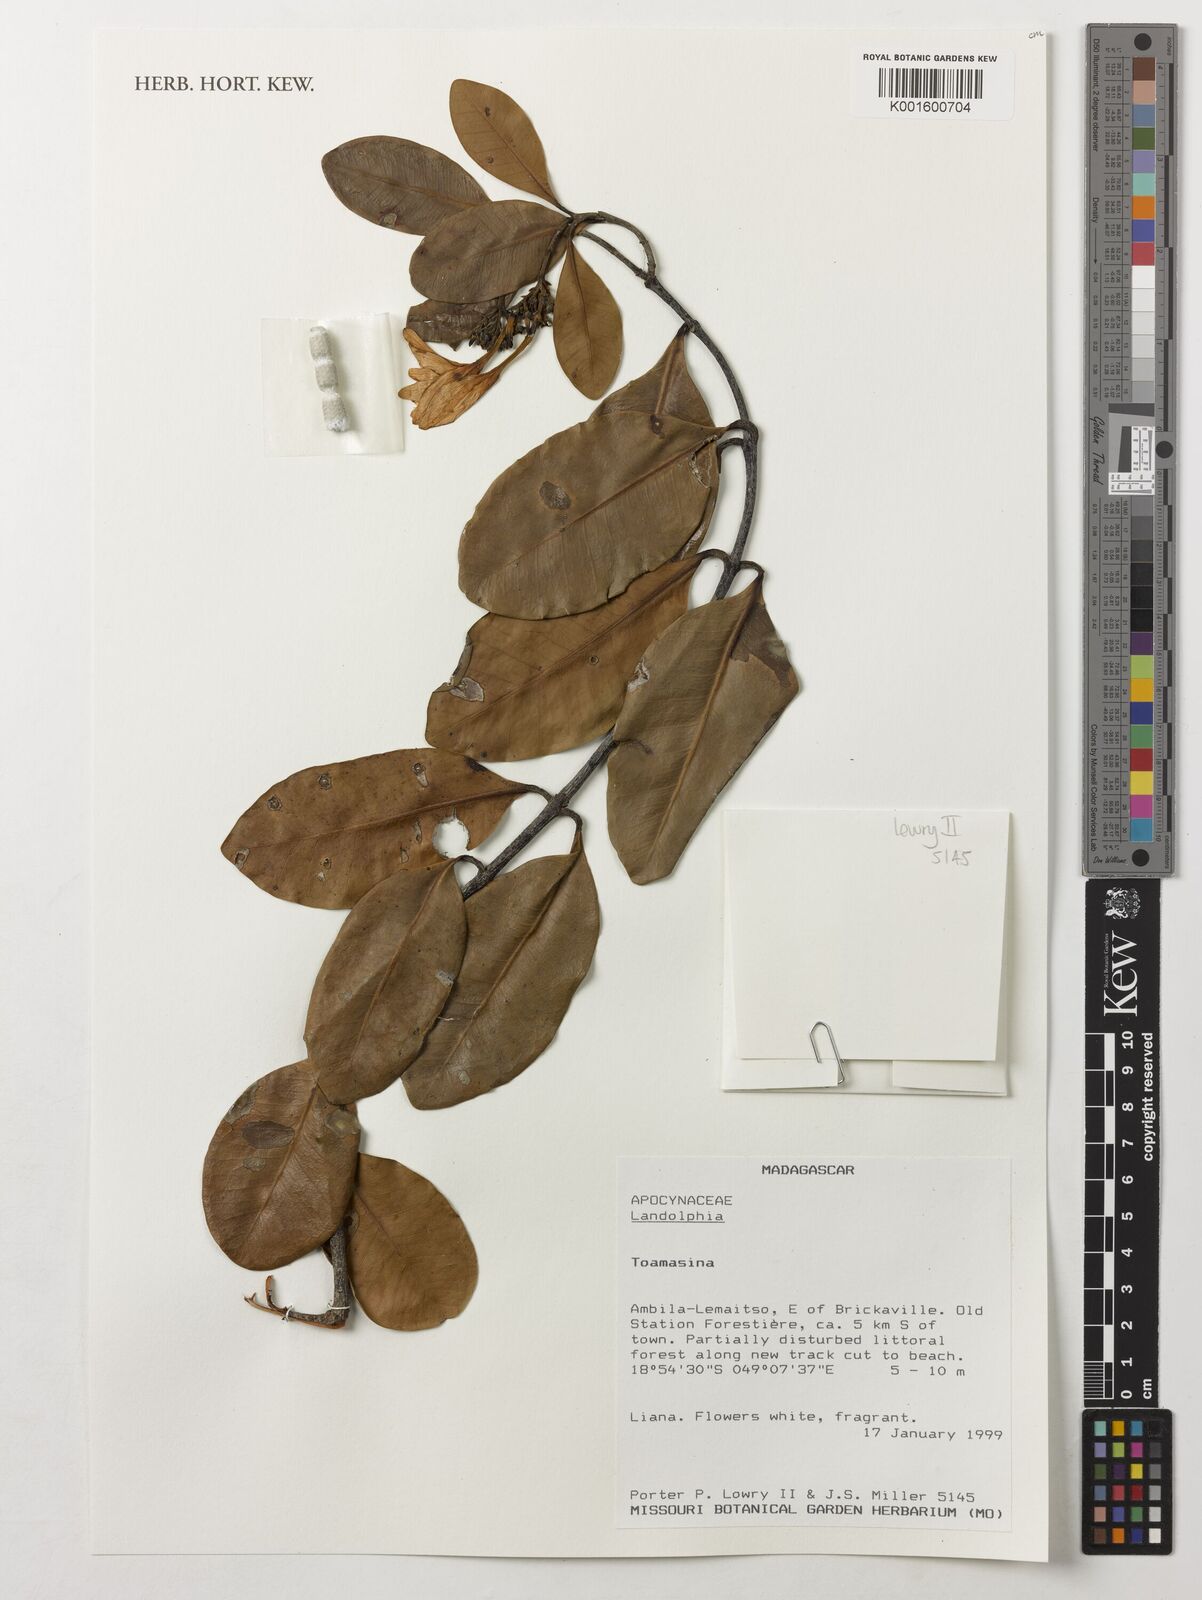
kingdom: Plantae
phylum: Tracheophyta
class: Magnoliopsida
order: Gentianales
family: Apocynaceae
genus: Landolphia
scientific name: Landolphia
